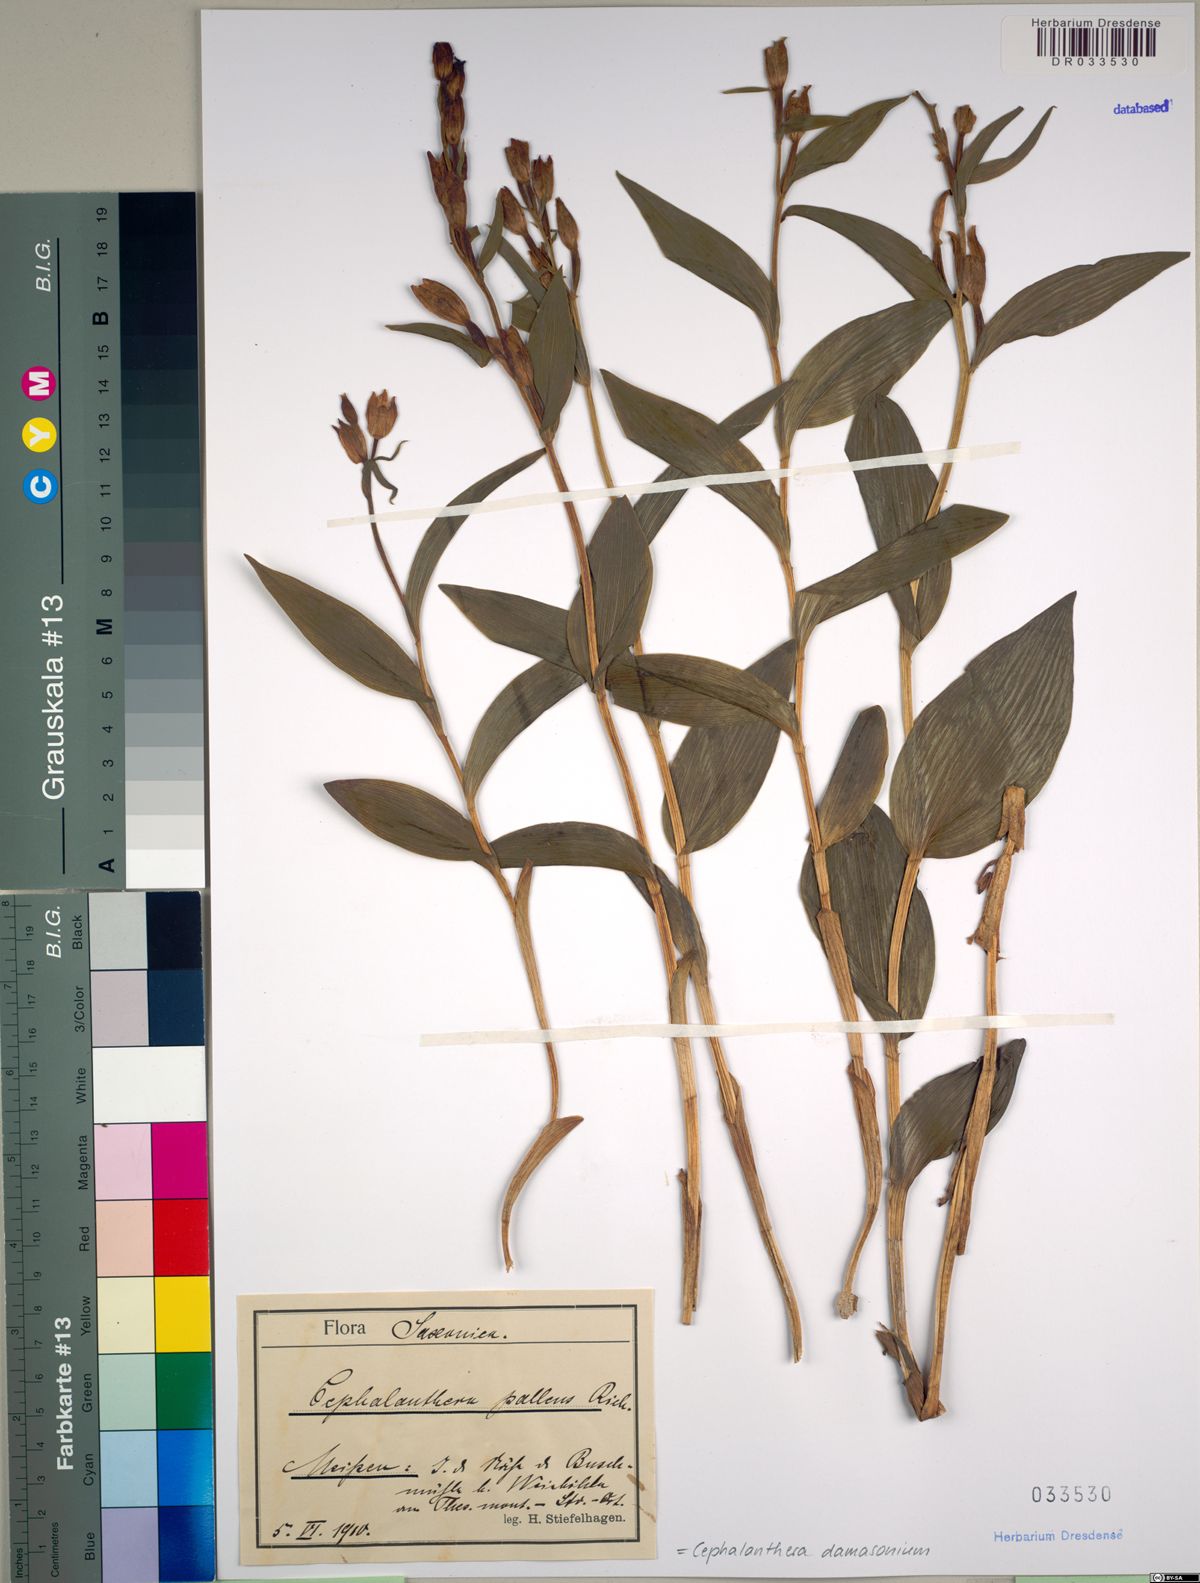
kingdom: Plantae
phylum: Tracheophyta
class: Liliopsida
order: Asparagales
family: Orchidaceae
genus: Cephalanthera
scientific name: Cephalanthera damasonium
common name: White helleborine
